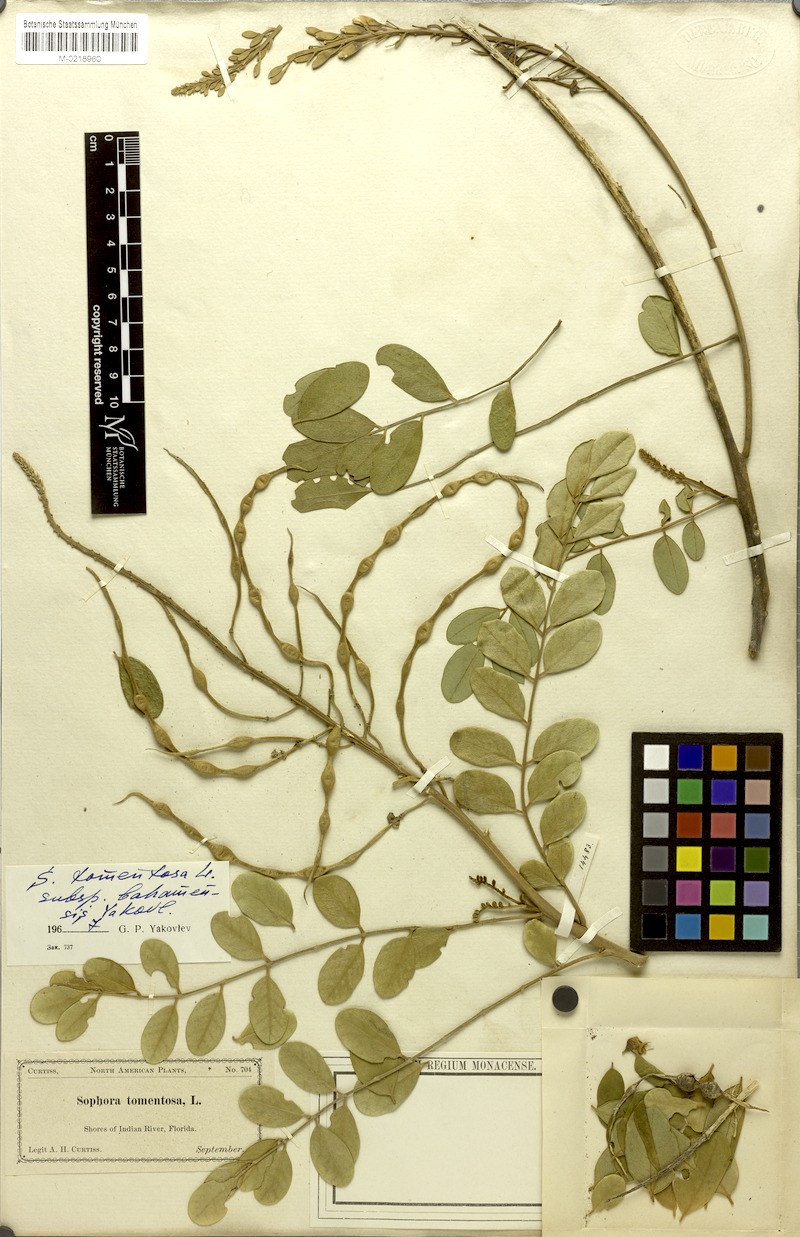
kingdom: Plantae
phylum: Tracheophyta
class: Magnoliopsida
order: Fabales
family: Fabaceae
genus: Sophora
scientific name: Sophora tomentosa
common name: Yellow necklacepod
